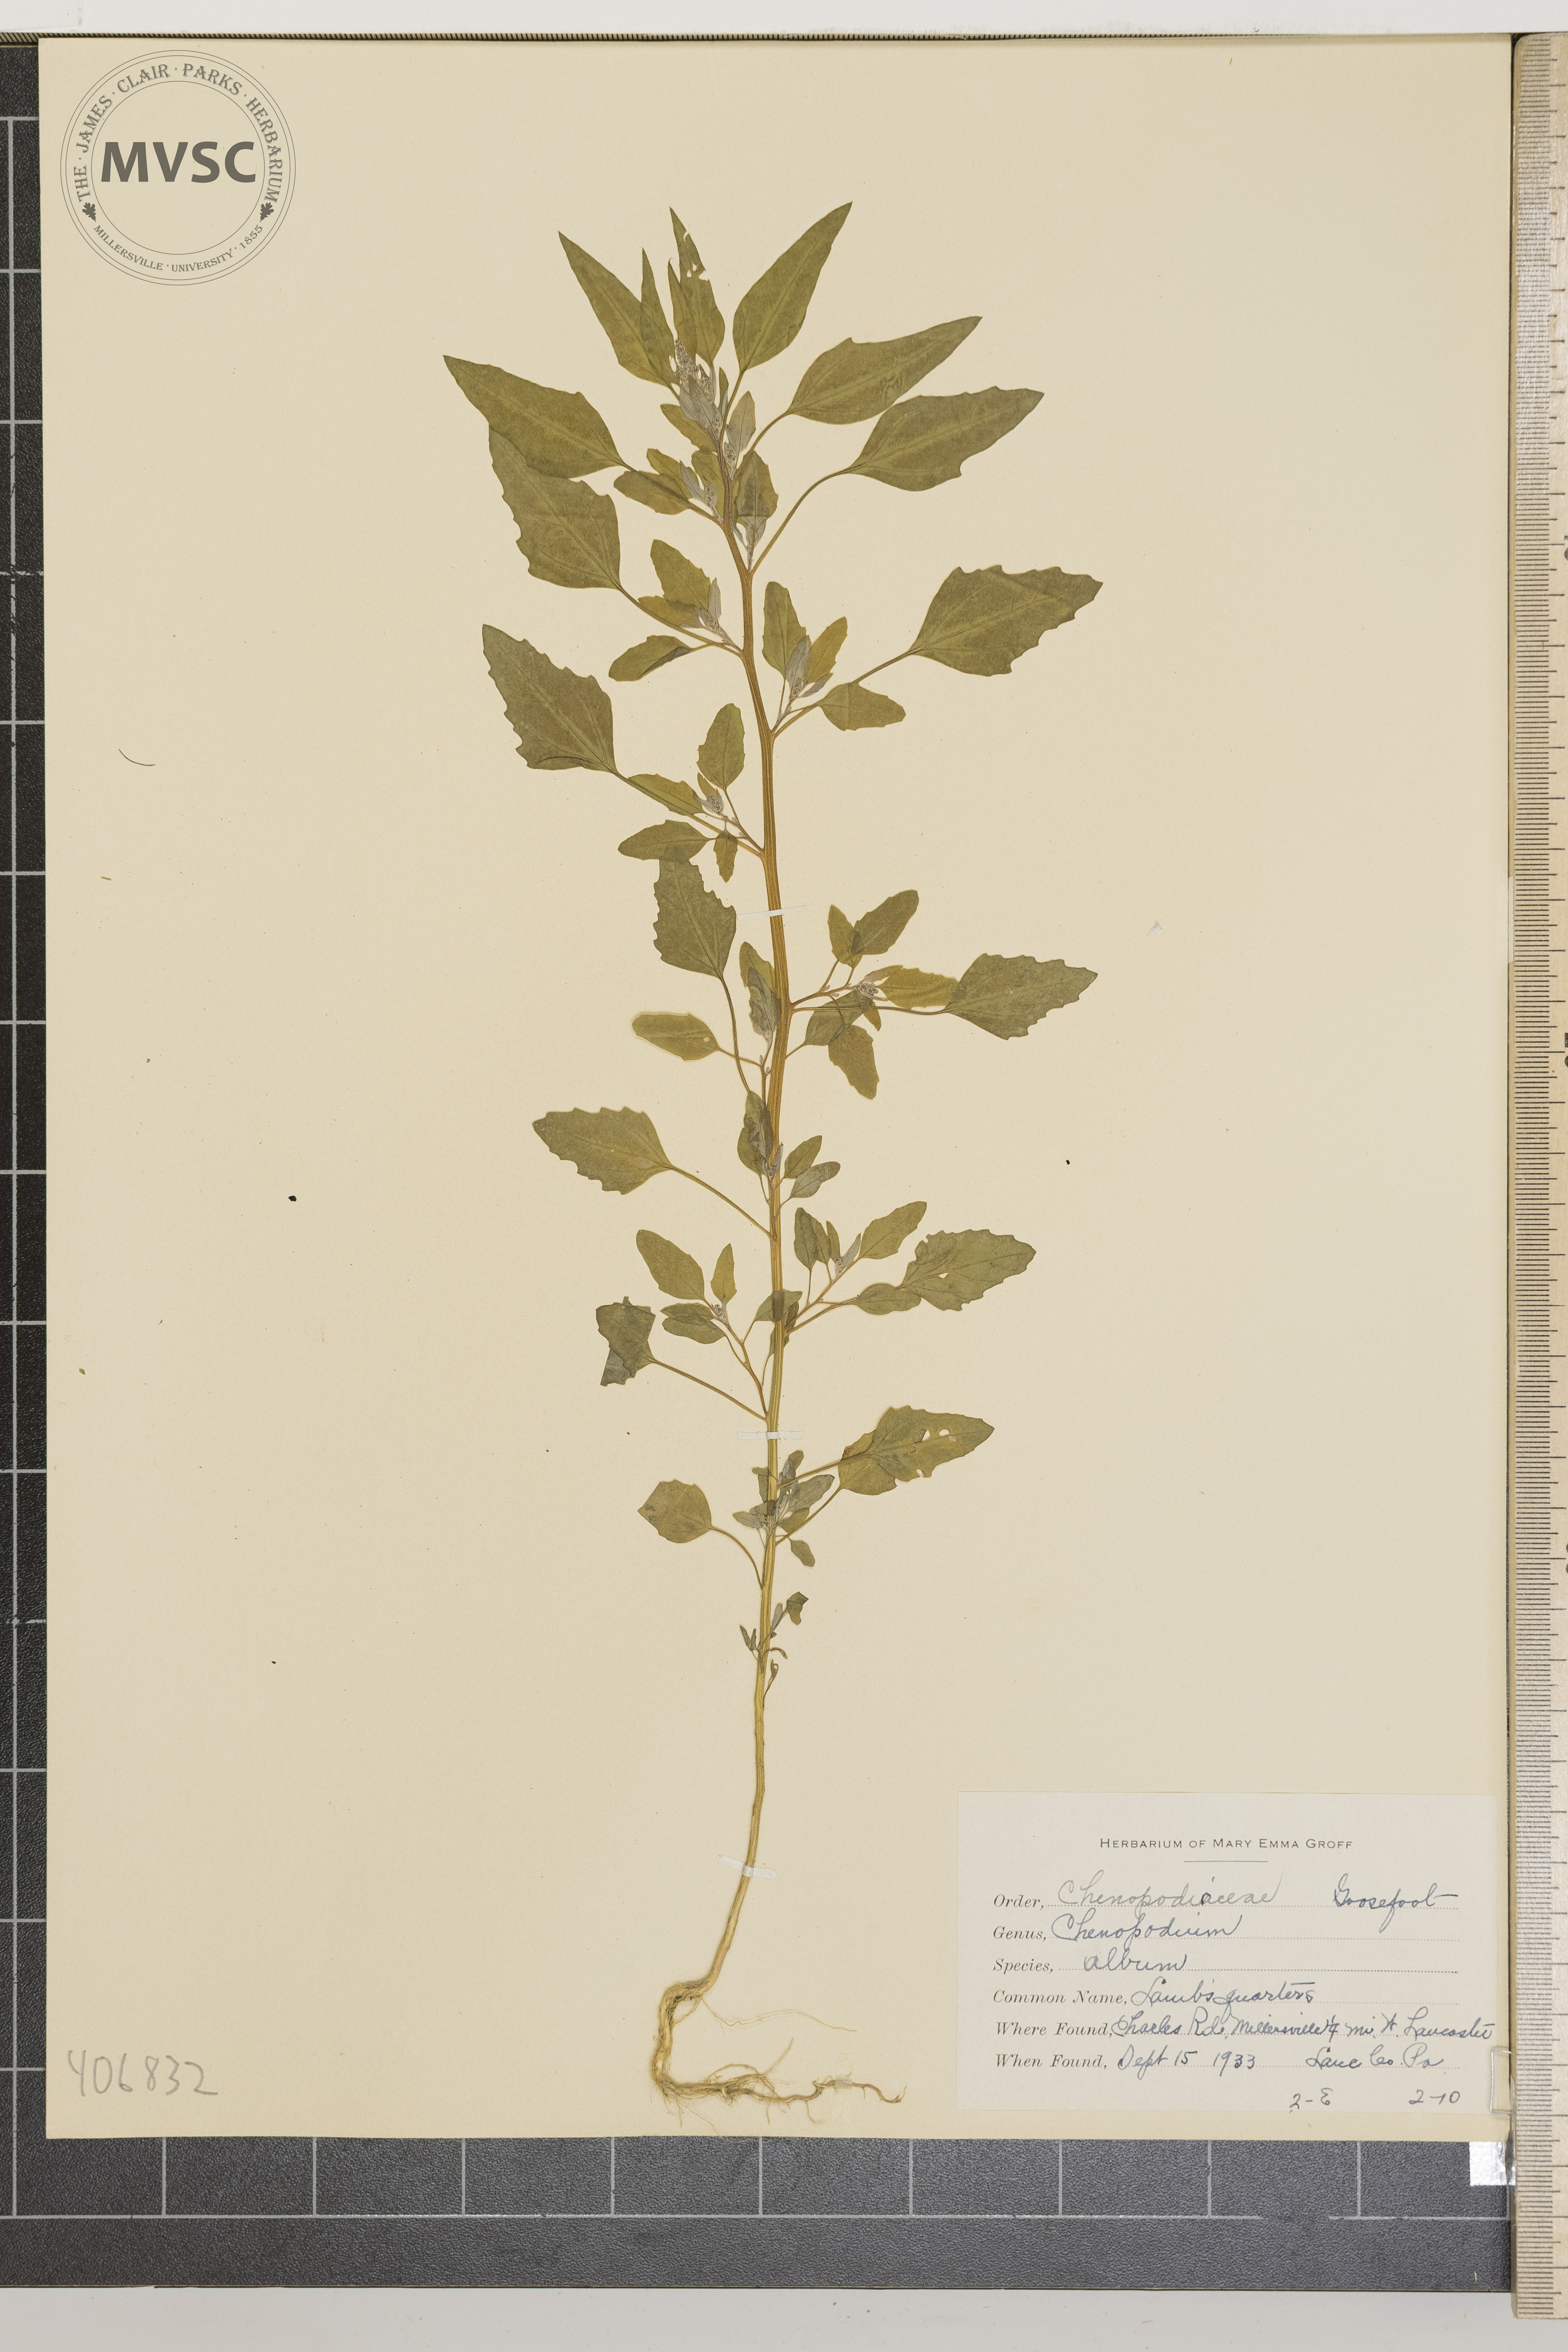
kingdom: Plantae
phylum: Tracheophyta
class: Magnoliopsida
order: Caryophyllales
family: Amaranthaceae
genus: Chenopodium
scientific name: Chenopodium album
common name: Lamb's quarters
